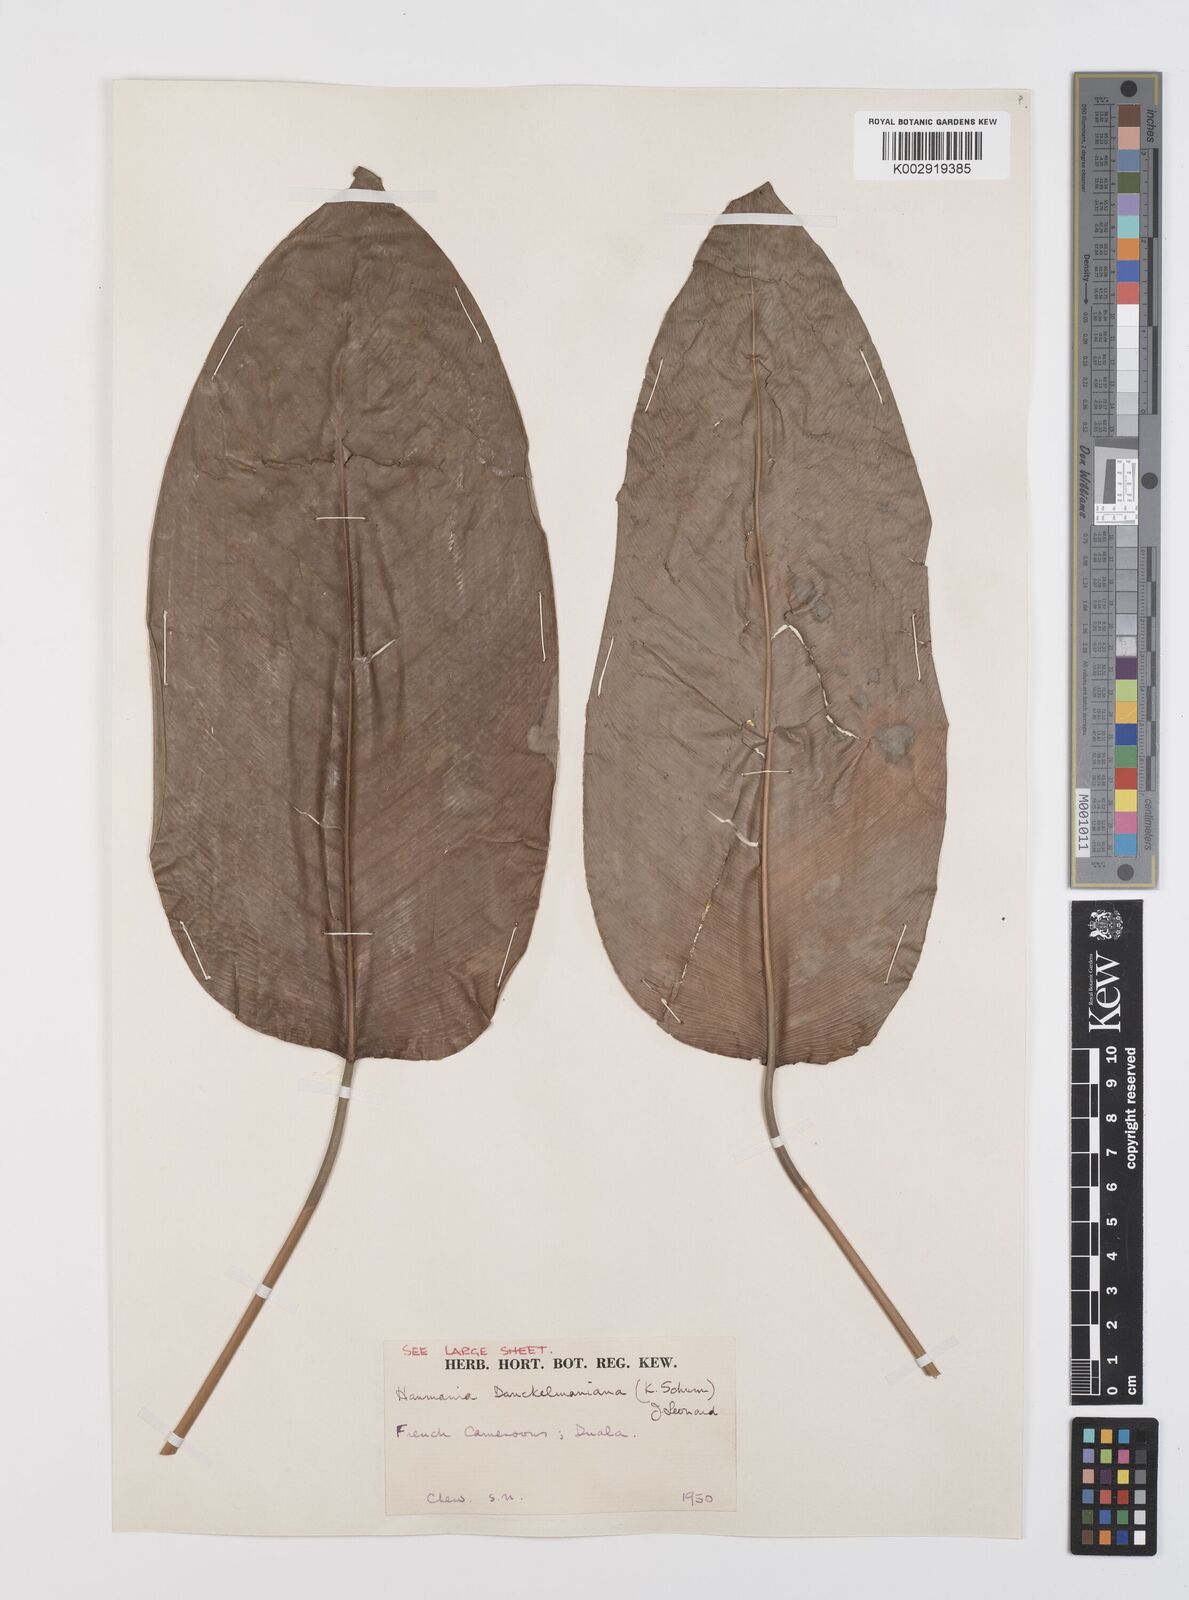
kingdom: Plantae
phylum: Tracheophyta
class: Liliopsida
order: Zingiberales
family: Marantaceae
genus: Haumania
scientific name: Haumania danckelmaniana
